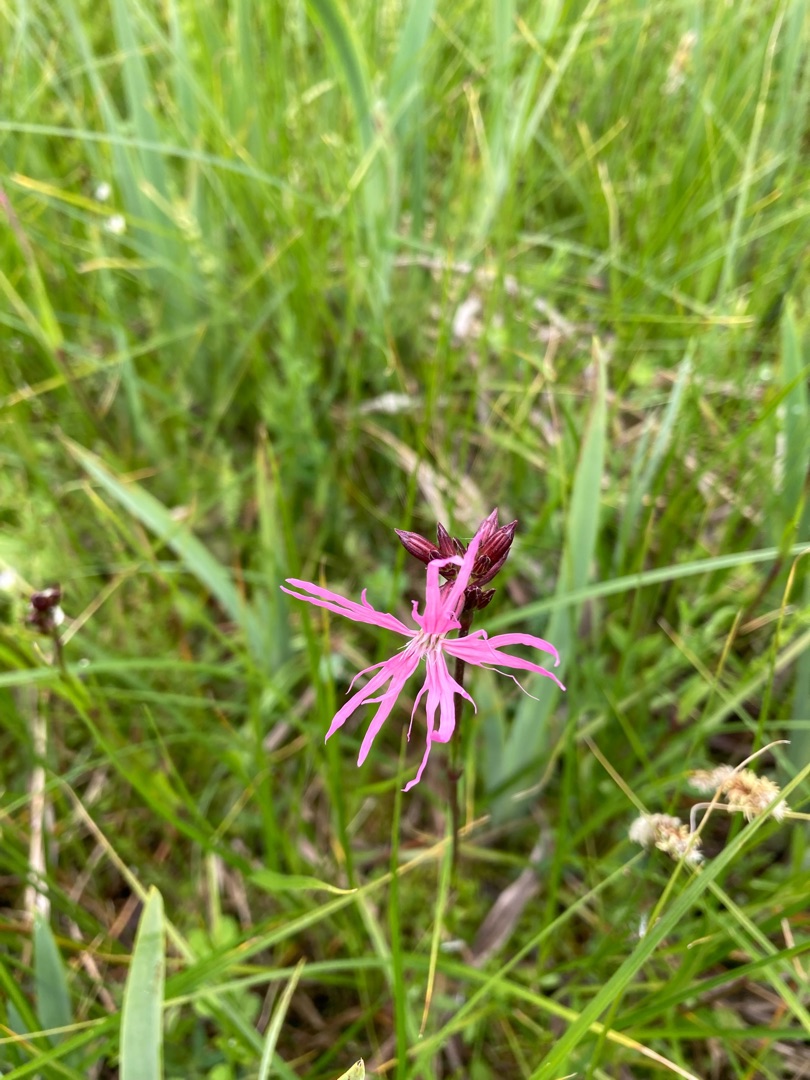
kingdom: Plantae
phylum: Tracheophyta
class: Magnoliopsida
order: Caryophyllales
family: Caryophyllaceae
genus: Silene
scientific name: Silene flos-cuculi
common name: Trævlekrone
